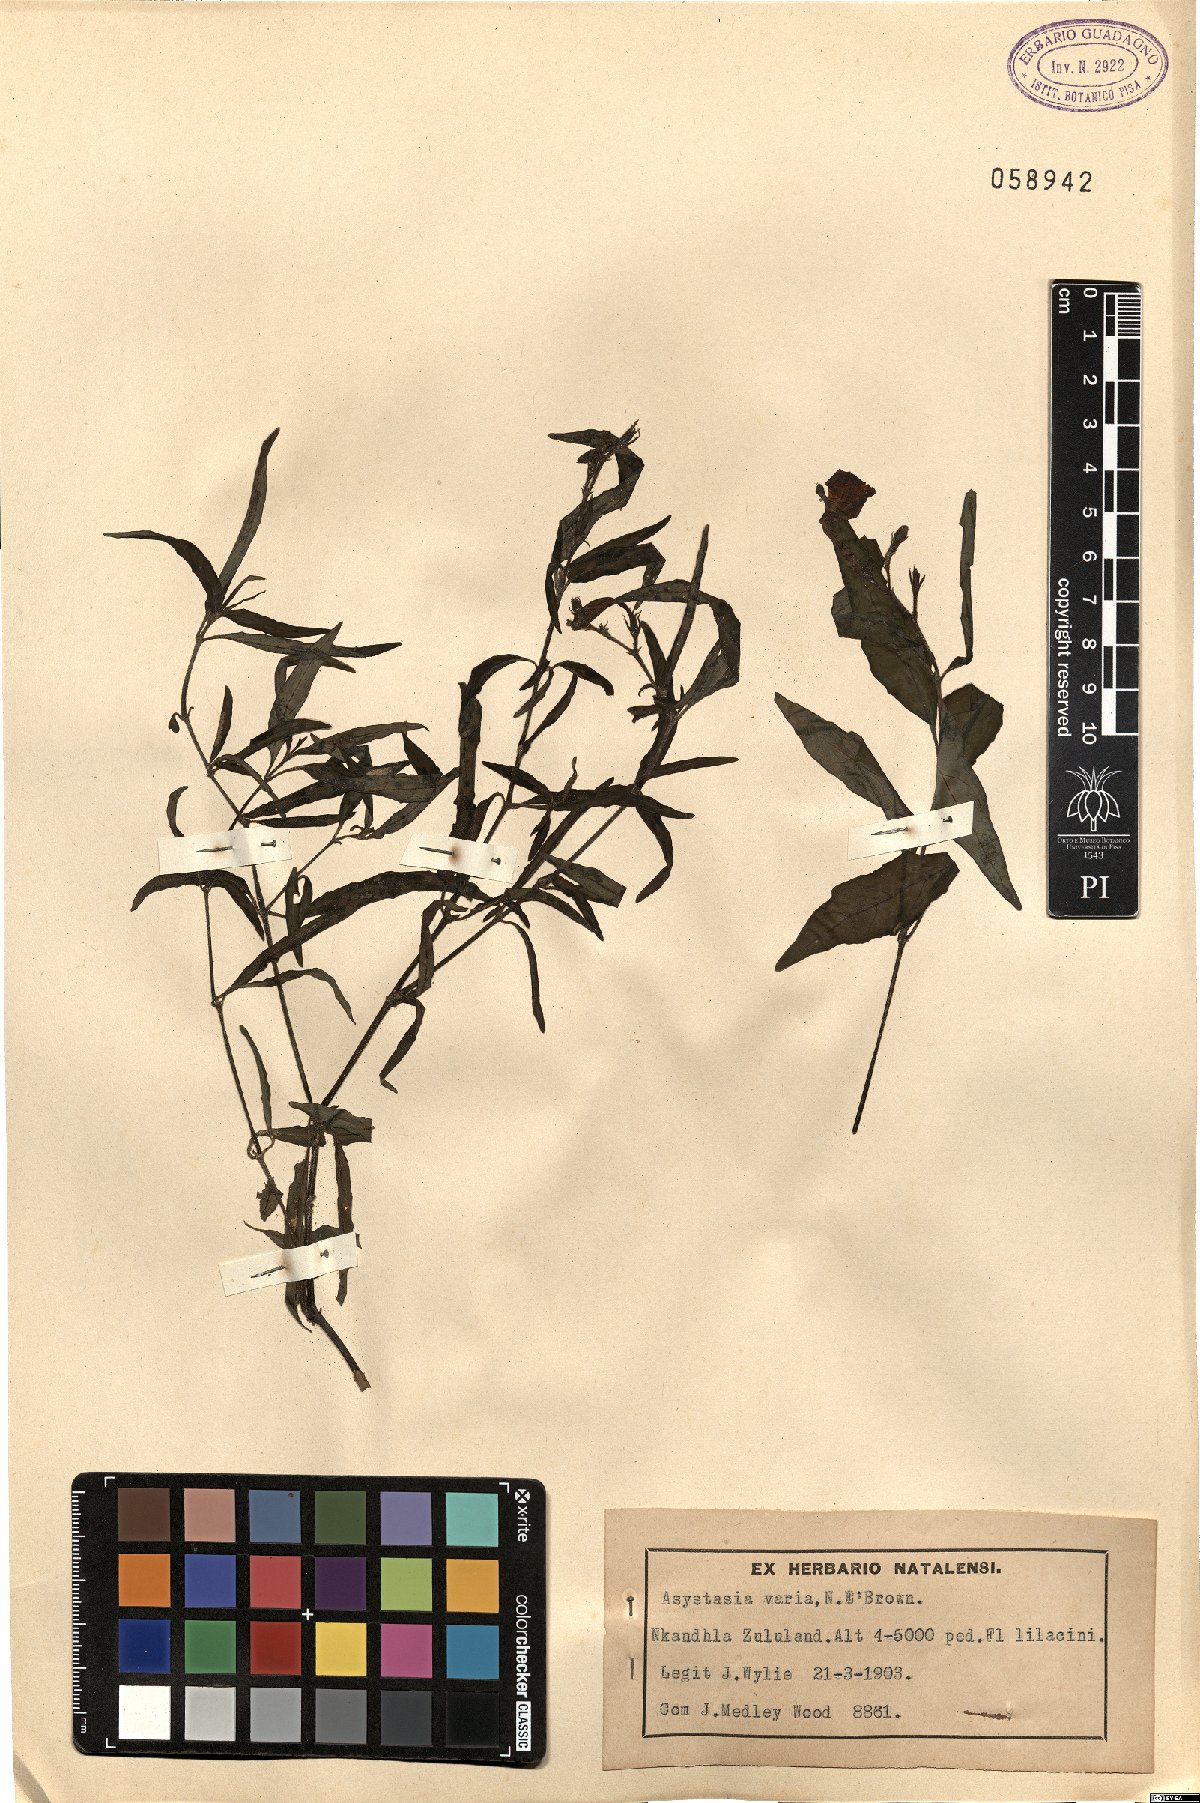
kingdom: Plantae
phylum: Tracheophyta
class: Magnoliopsida
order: Lamiales
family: Acanthaceae
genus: Asystasia
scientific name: Asystasia varia
